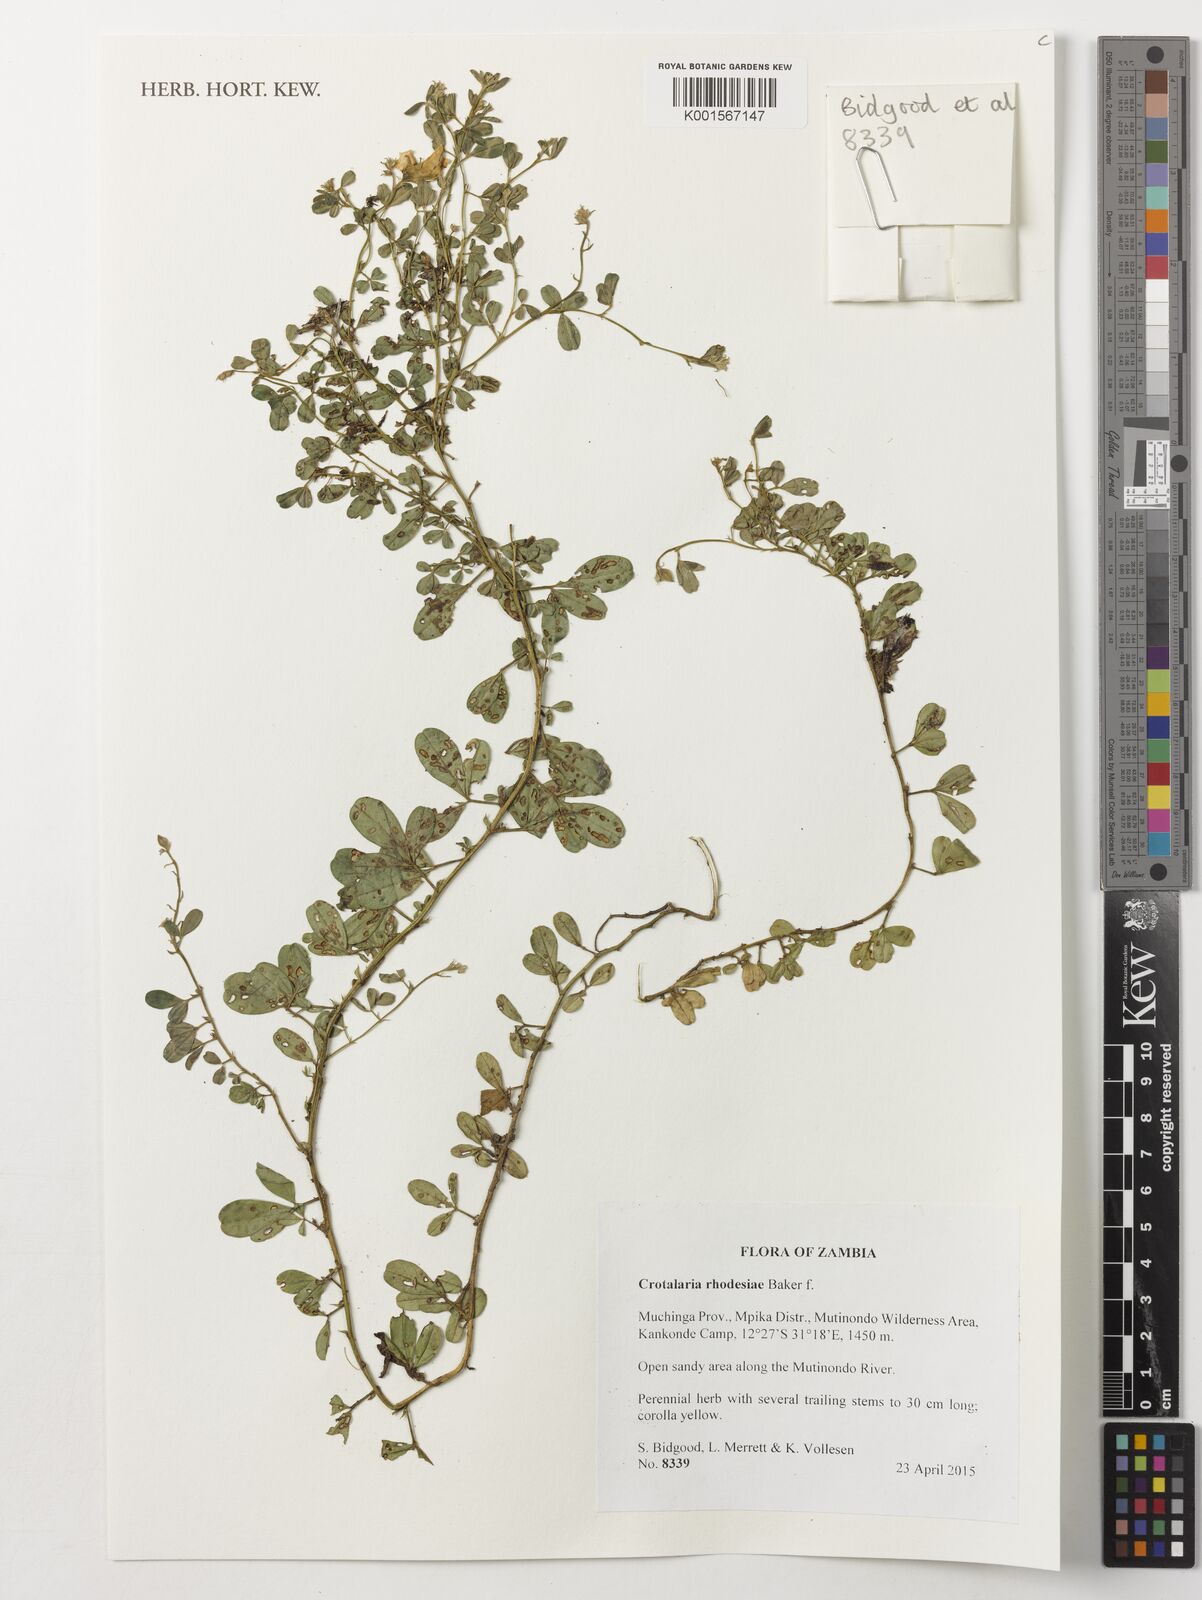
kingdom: Plantae
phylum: Tracheophyta
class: Magnoliopsida
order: Fabales
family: Fabaceae
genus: Crotalaria
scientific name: Crotalaria rhodesiae
